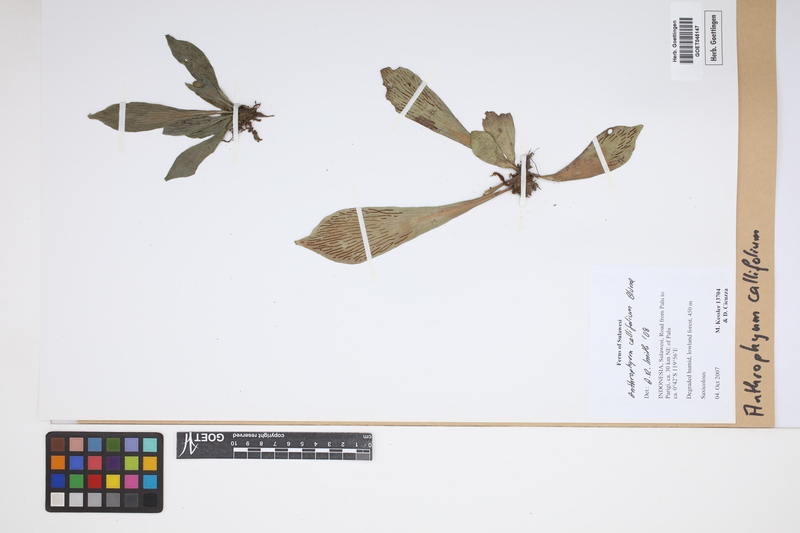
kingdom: Plantae
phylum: Tracheophyta
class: Polypodiopsida
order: Polypodiales
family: Pteridaceae
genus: Antrophyum
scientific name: Antrophyum callifolium
